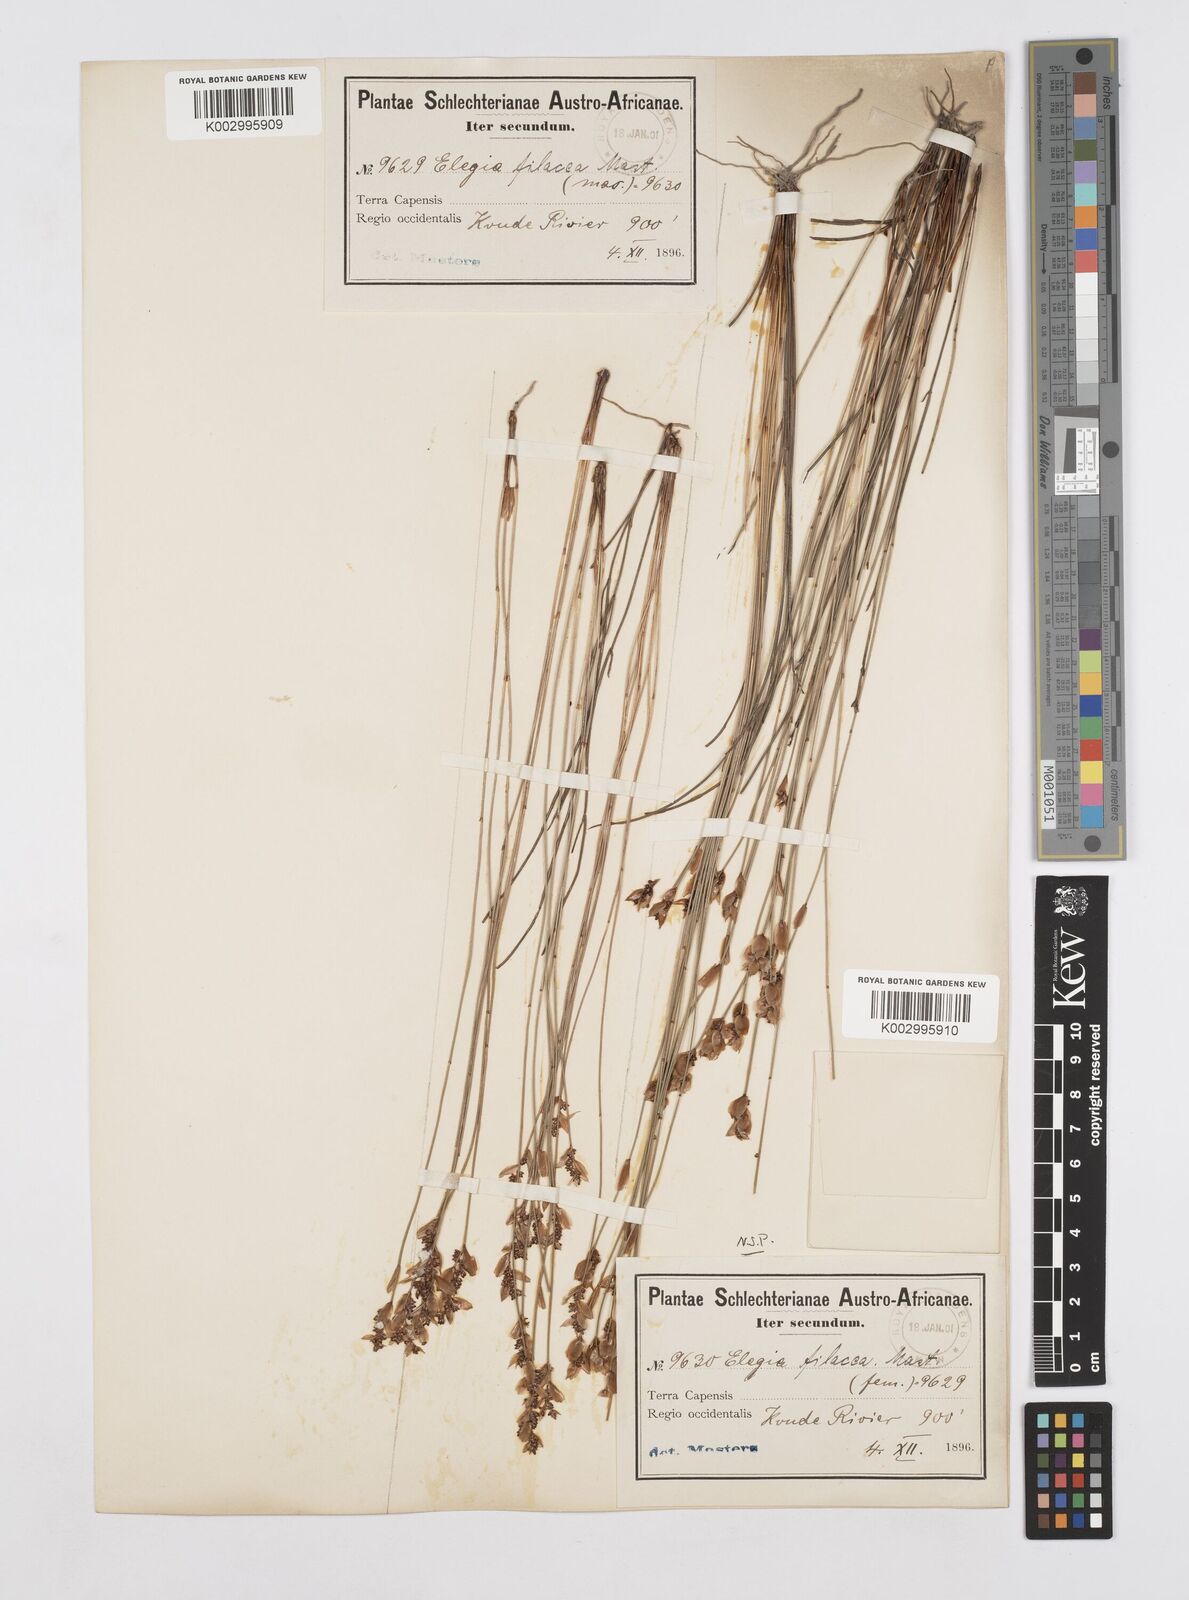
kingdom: Plantae
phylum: Tracheophyta
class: Liliopsida
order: Poales
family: Restionaceae
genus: Cannomois
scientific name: Cannomois parviflora
